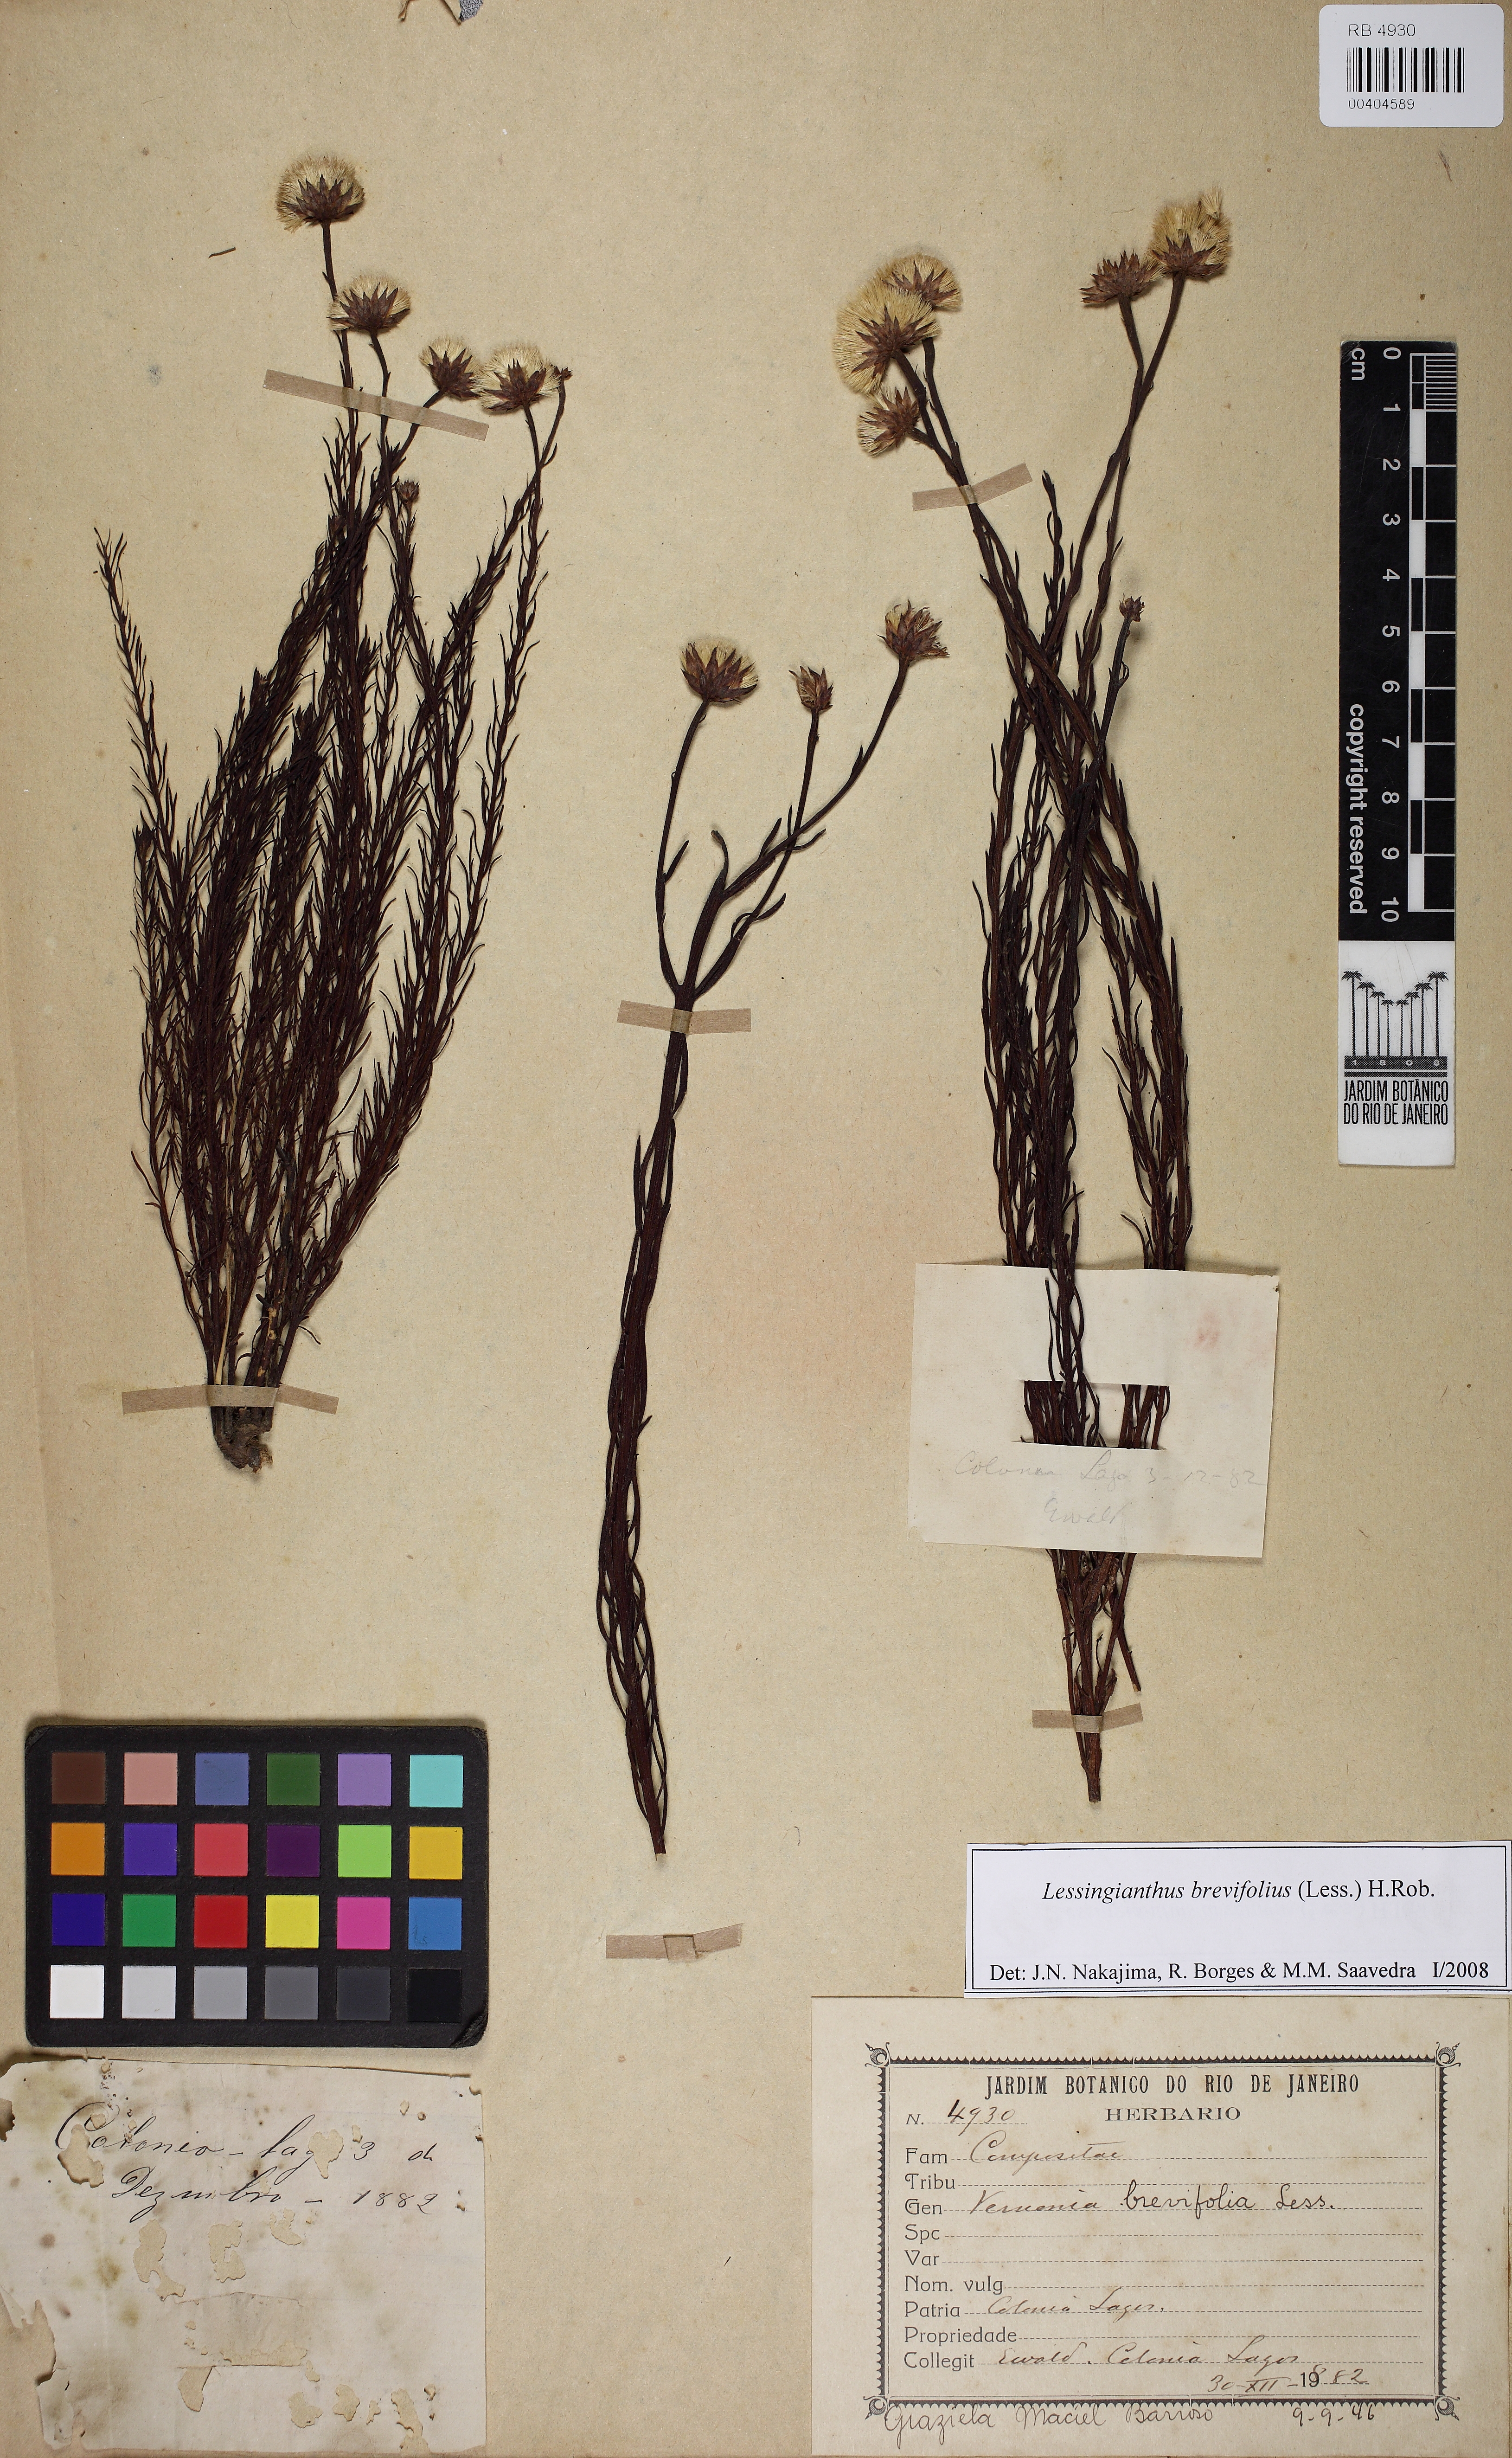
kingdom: Plantae
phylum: Tracheophyta
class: Magnoliopsida
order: Asterales
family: Asteraceae
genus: Lessingianthus
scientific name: Lessingianthus brevifolius
